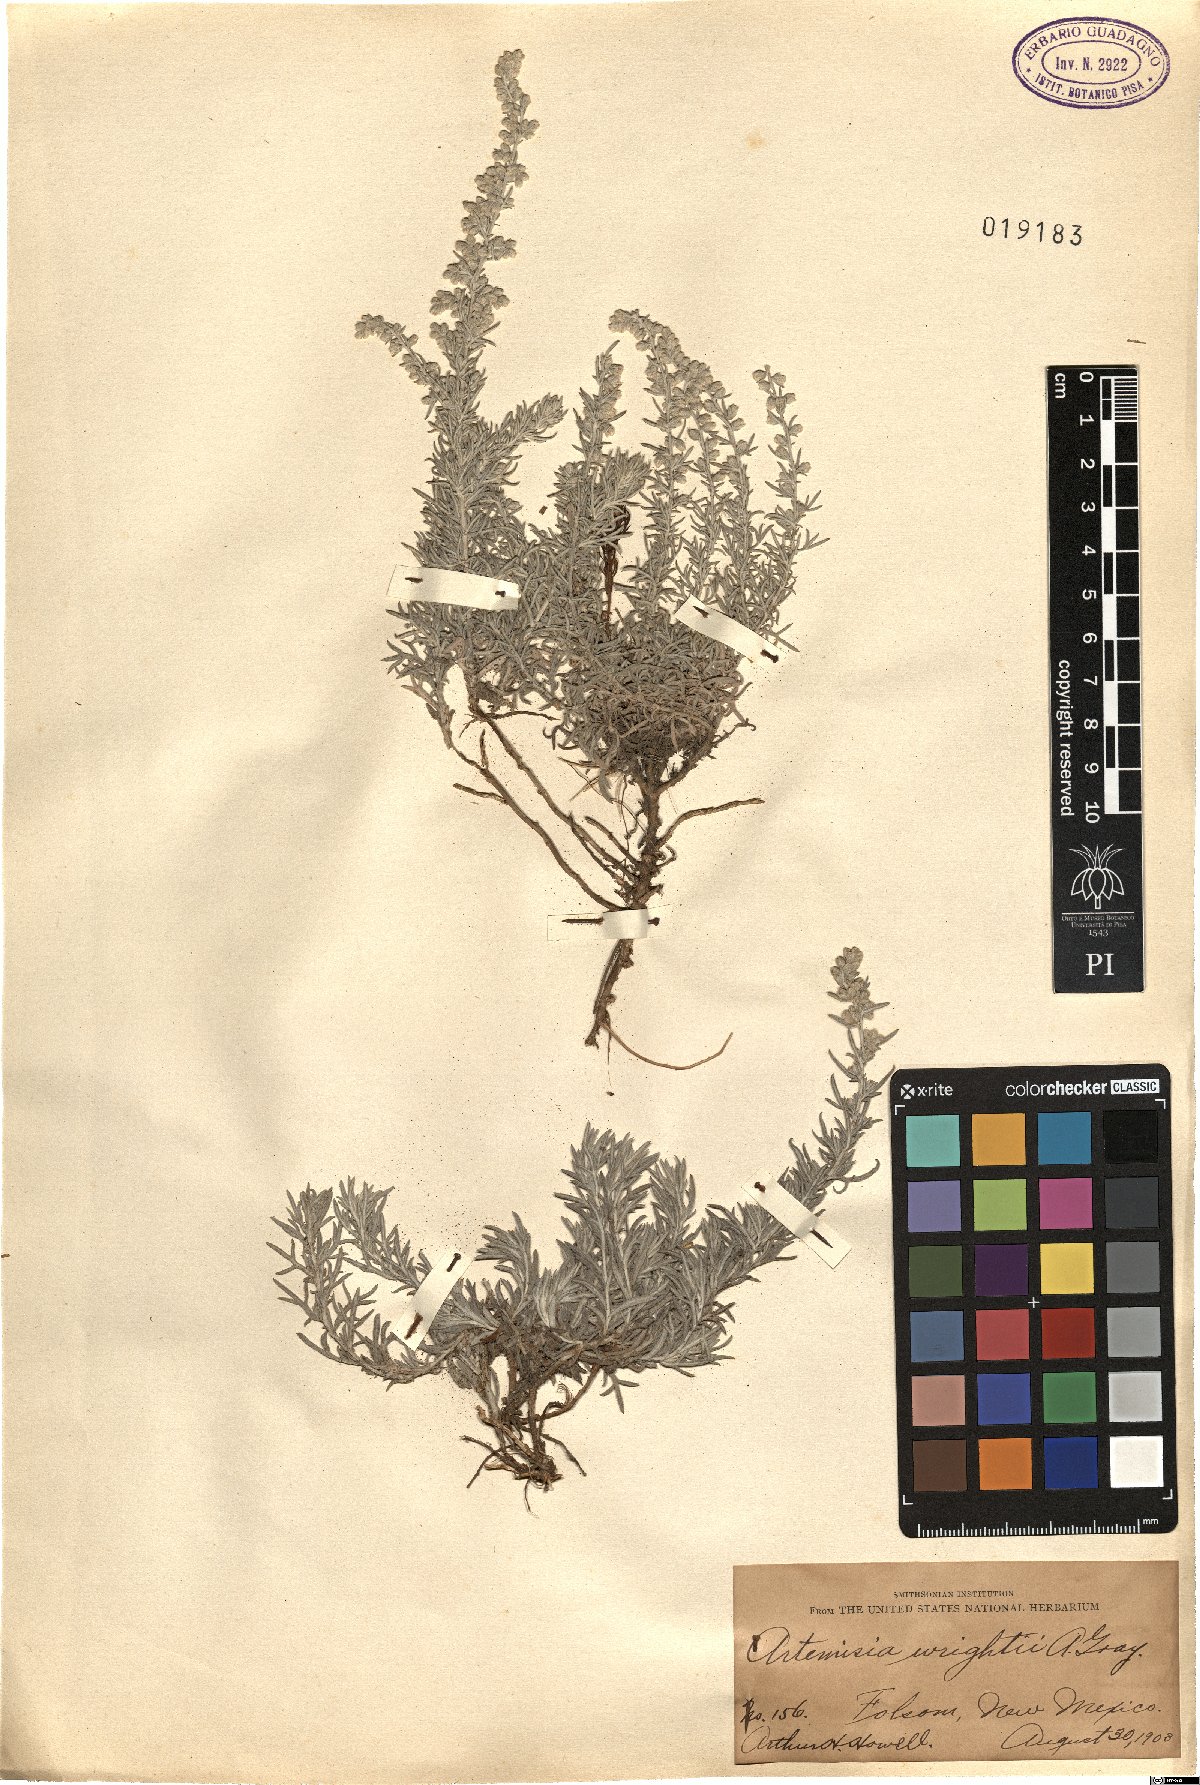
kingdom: Plantae
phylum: Tracheophyta
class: Magnoliopsida
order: Asterales
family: Asteraceae
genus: Artemisia
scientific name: Artemisia carruthii
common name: Carruth wormwood
